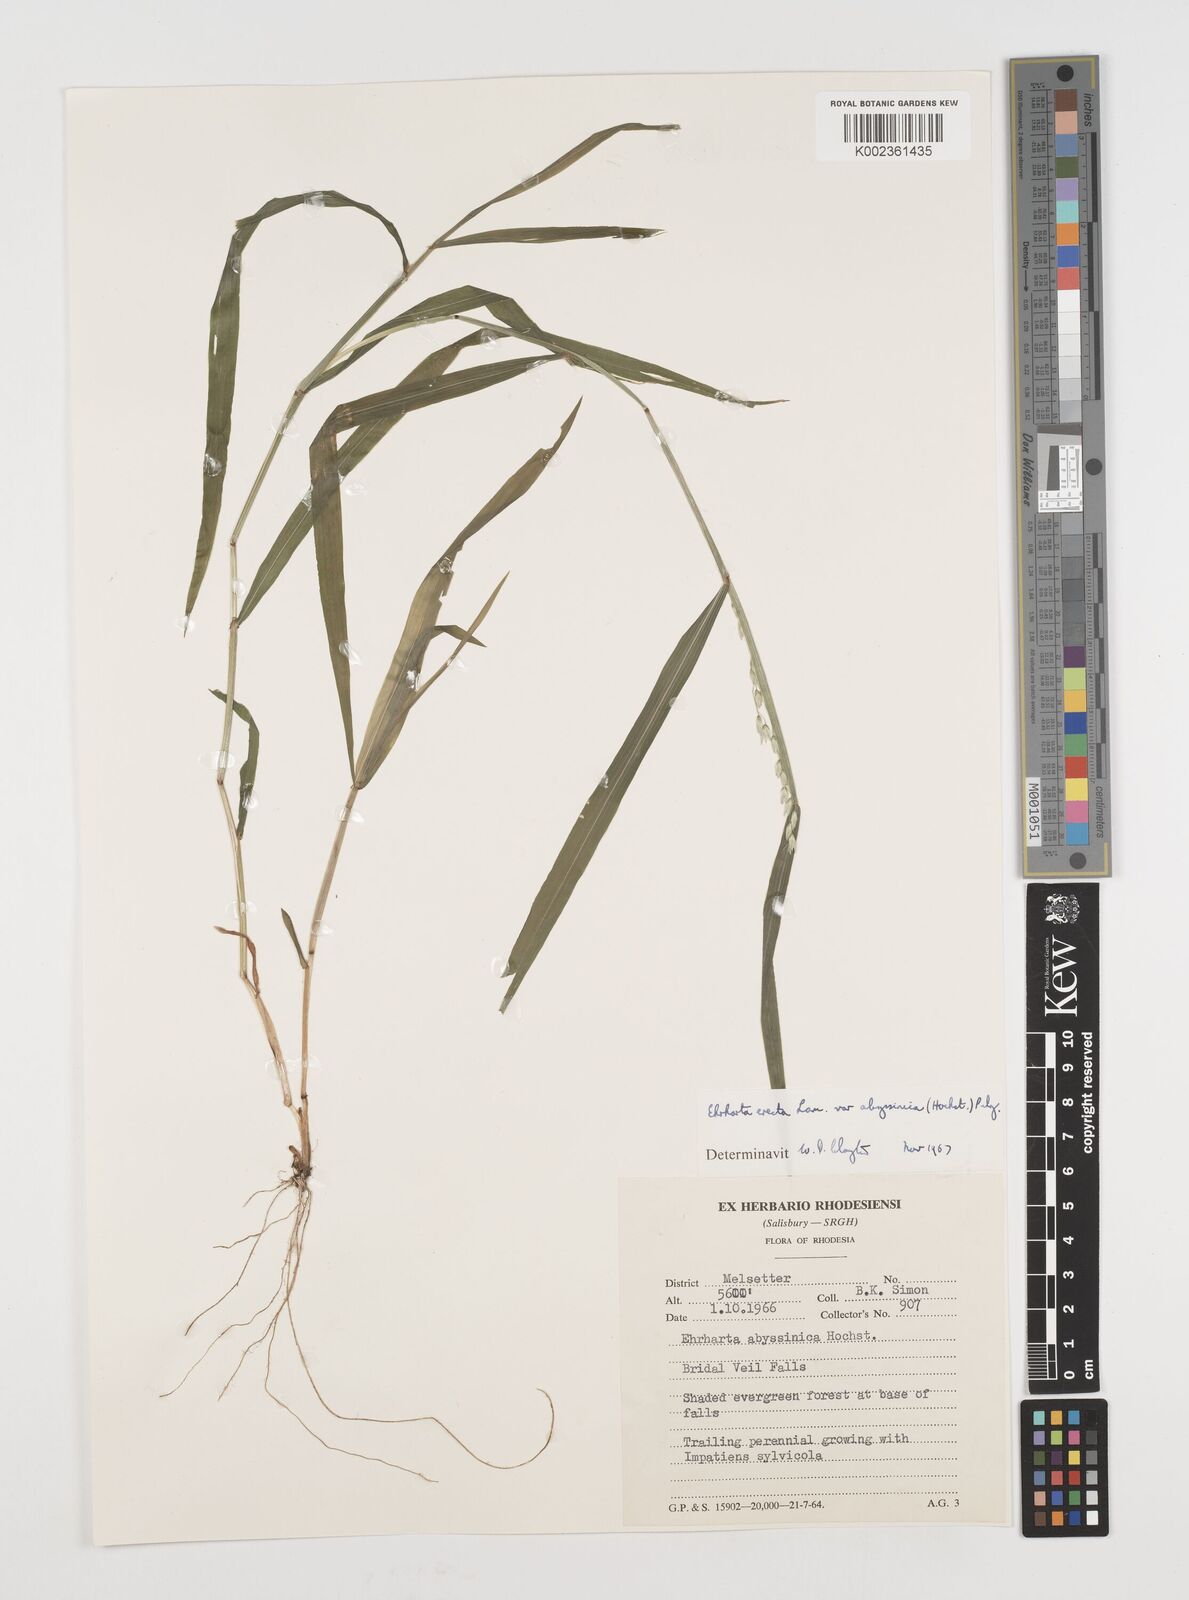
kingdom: Plantae
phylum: Tracheophyta
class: Liliopsida
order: Poales
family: Poaceae
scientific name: Poaceae
